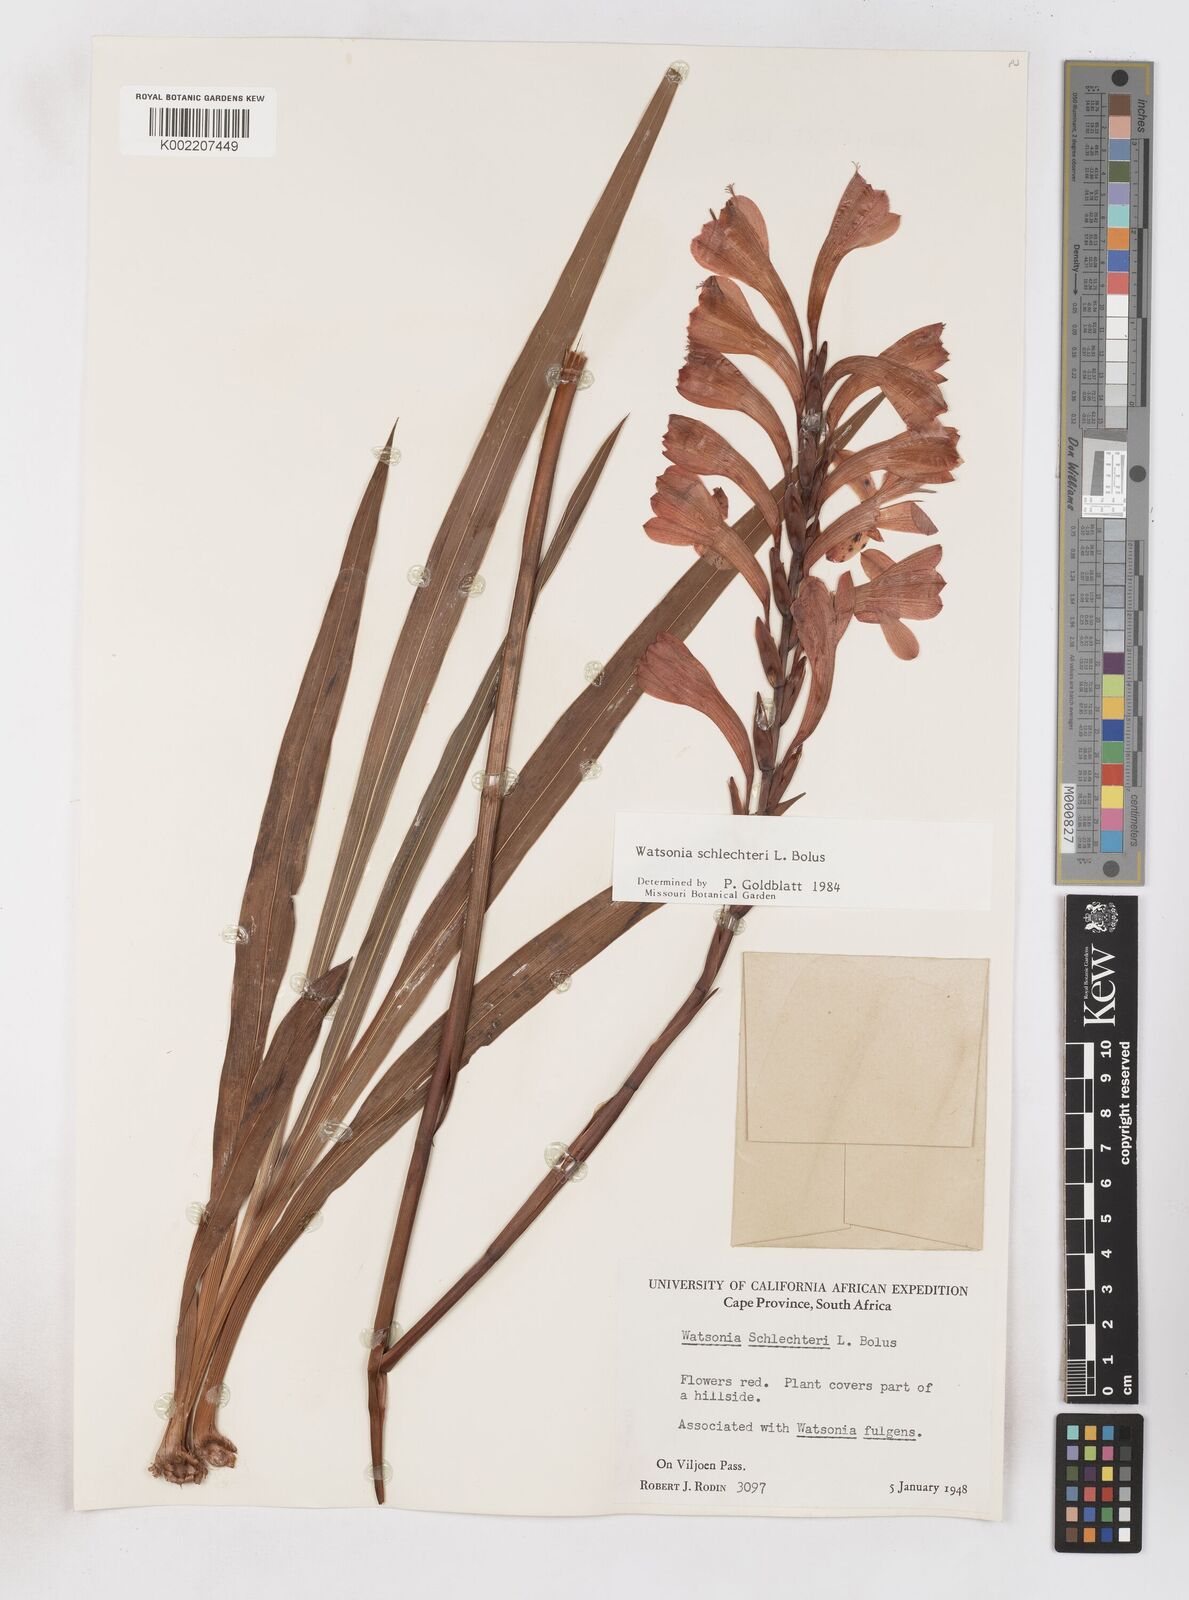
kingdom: Plantae
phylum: Tracheophyta
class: Liliopsida
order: Asparagales
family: Iridaceae
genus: Watsonia
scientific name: Watsonia schlechteri
